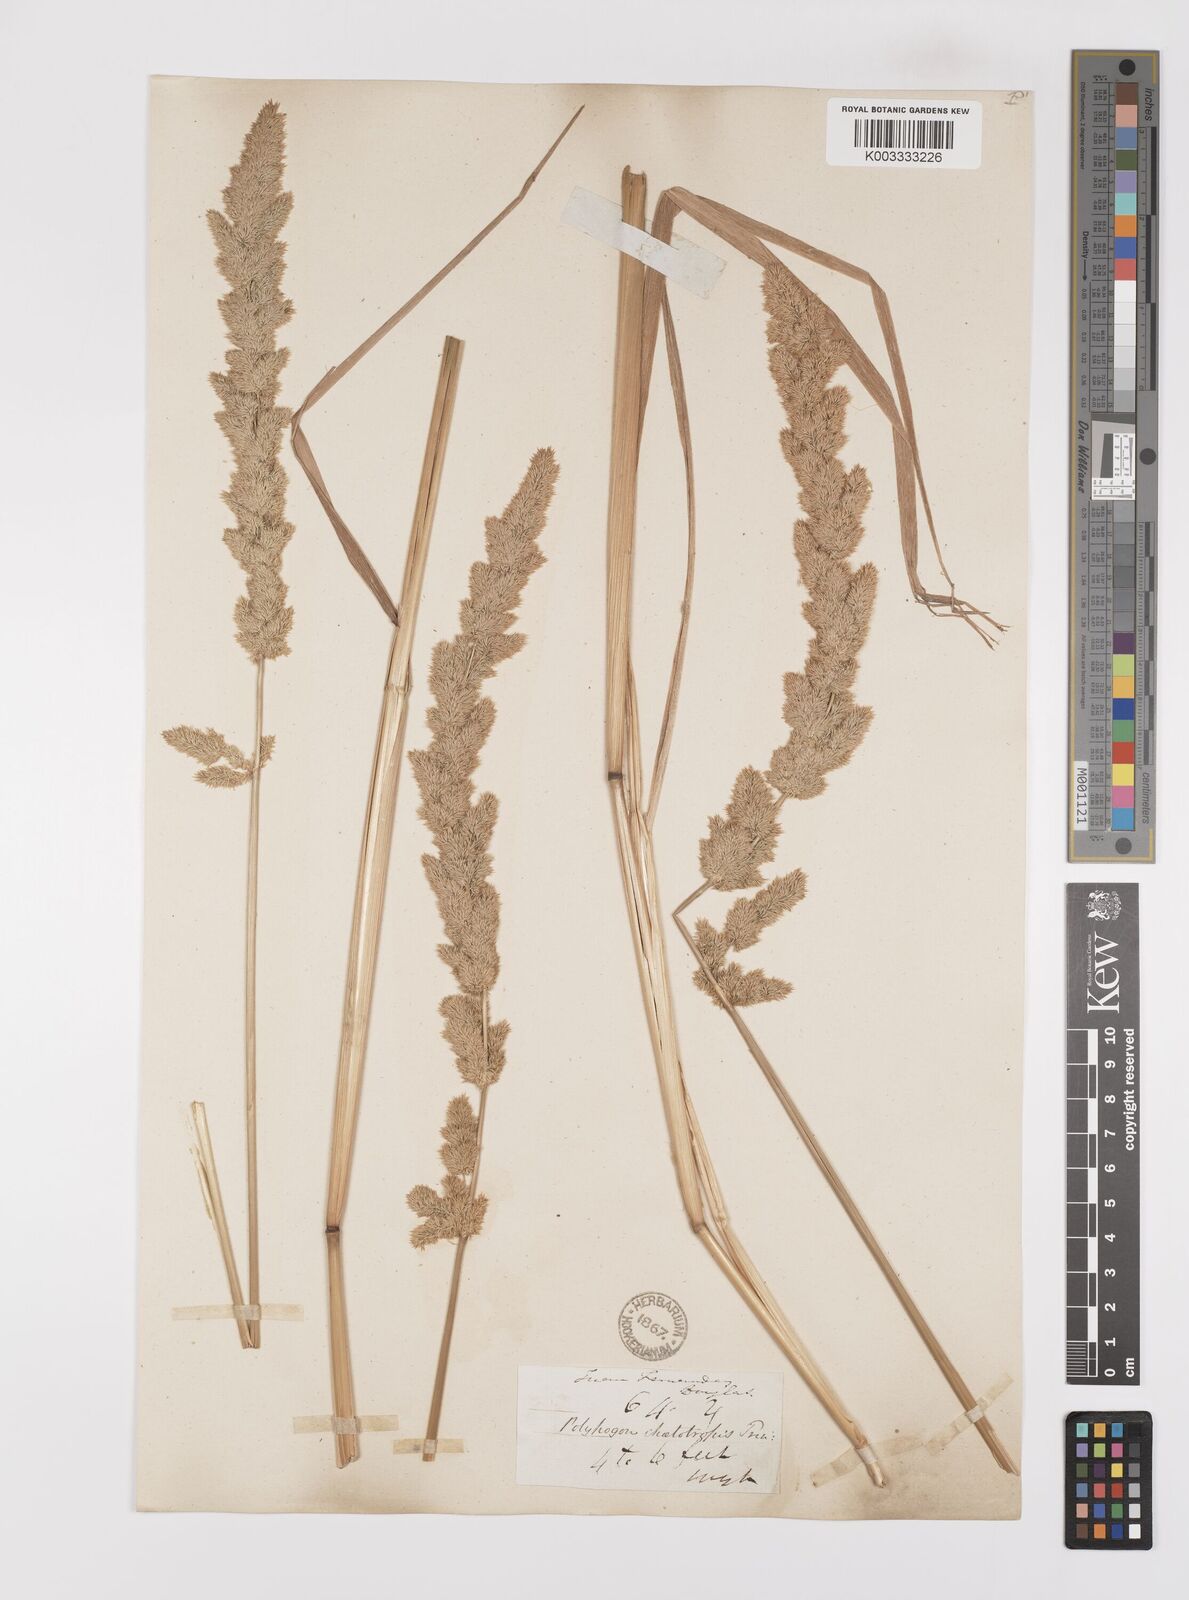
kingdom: Plantae
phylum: Tracheophyta
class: Liliopsida
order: Poales
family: Poaceae
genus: Polypogon
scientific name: Polypogon chilensis
